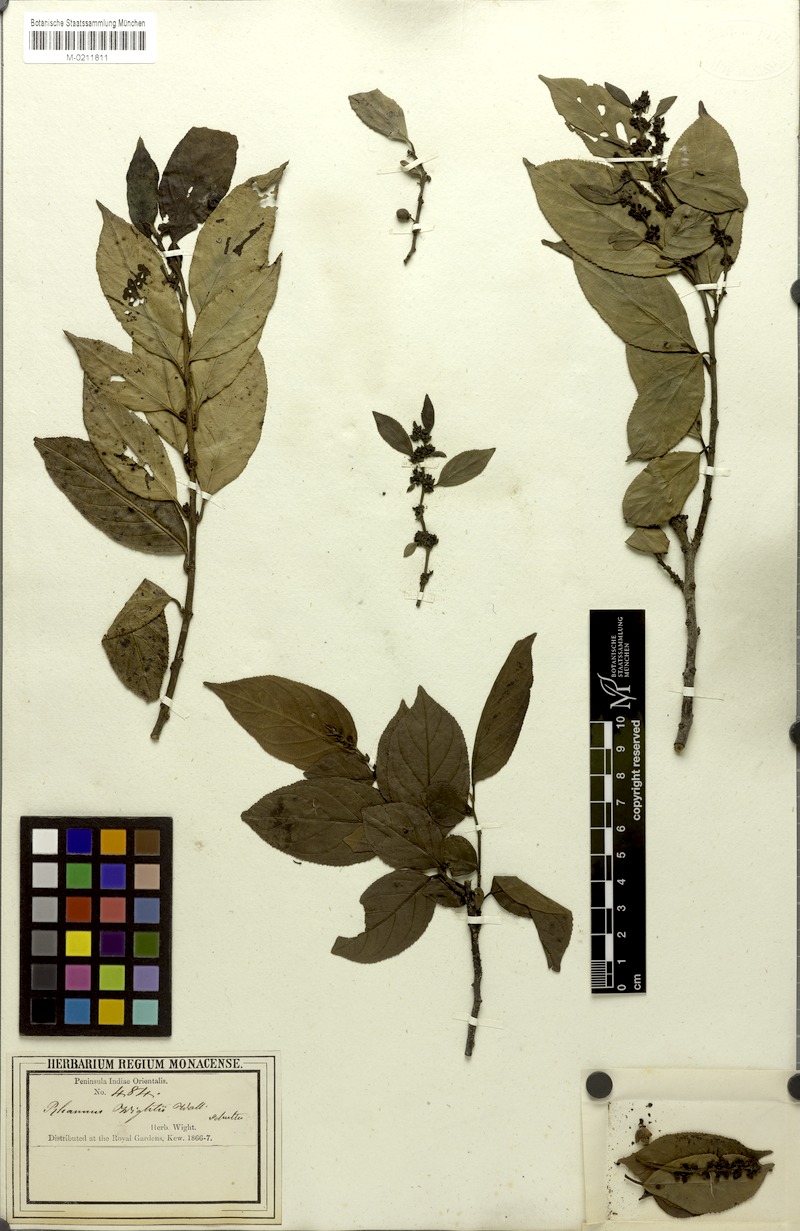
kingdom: Plantae
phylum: Tracheophyta
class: Magnoliopsida
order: Rosales
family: Rhamnaceae
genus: Rhamnus
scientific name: Rhamnus wightii
